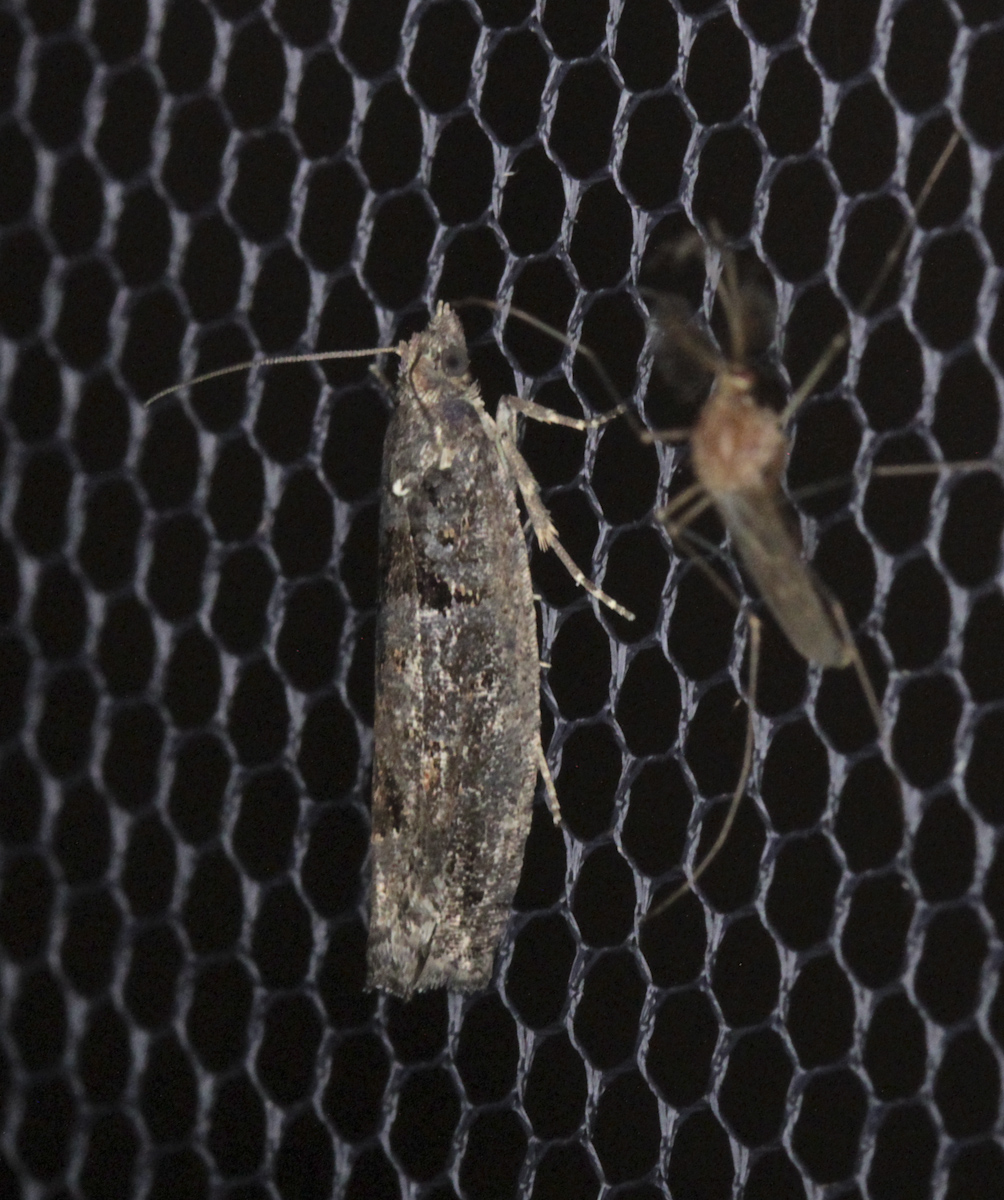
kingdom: Animalia
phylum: Arthropoda
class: Insecta
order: Lepidoptera
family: Tortricidae
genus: Epinotia
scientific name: Epinotia maculana
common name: Dark aspen bell
